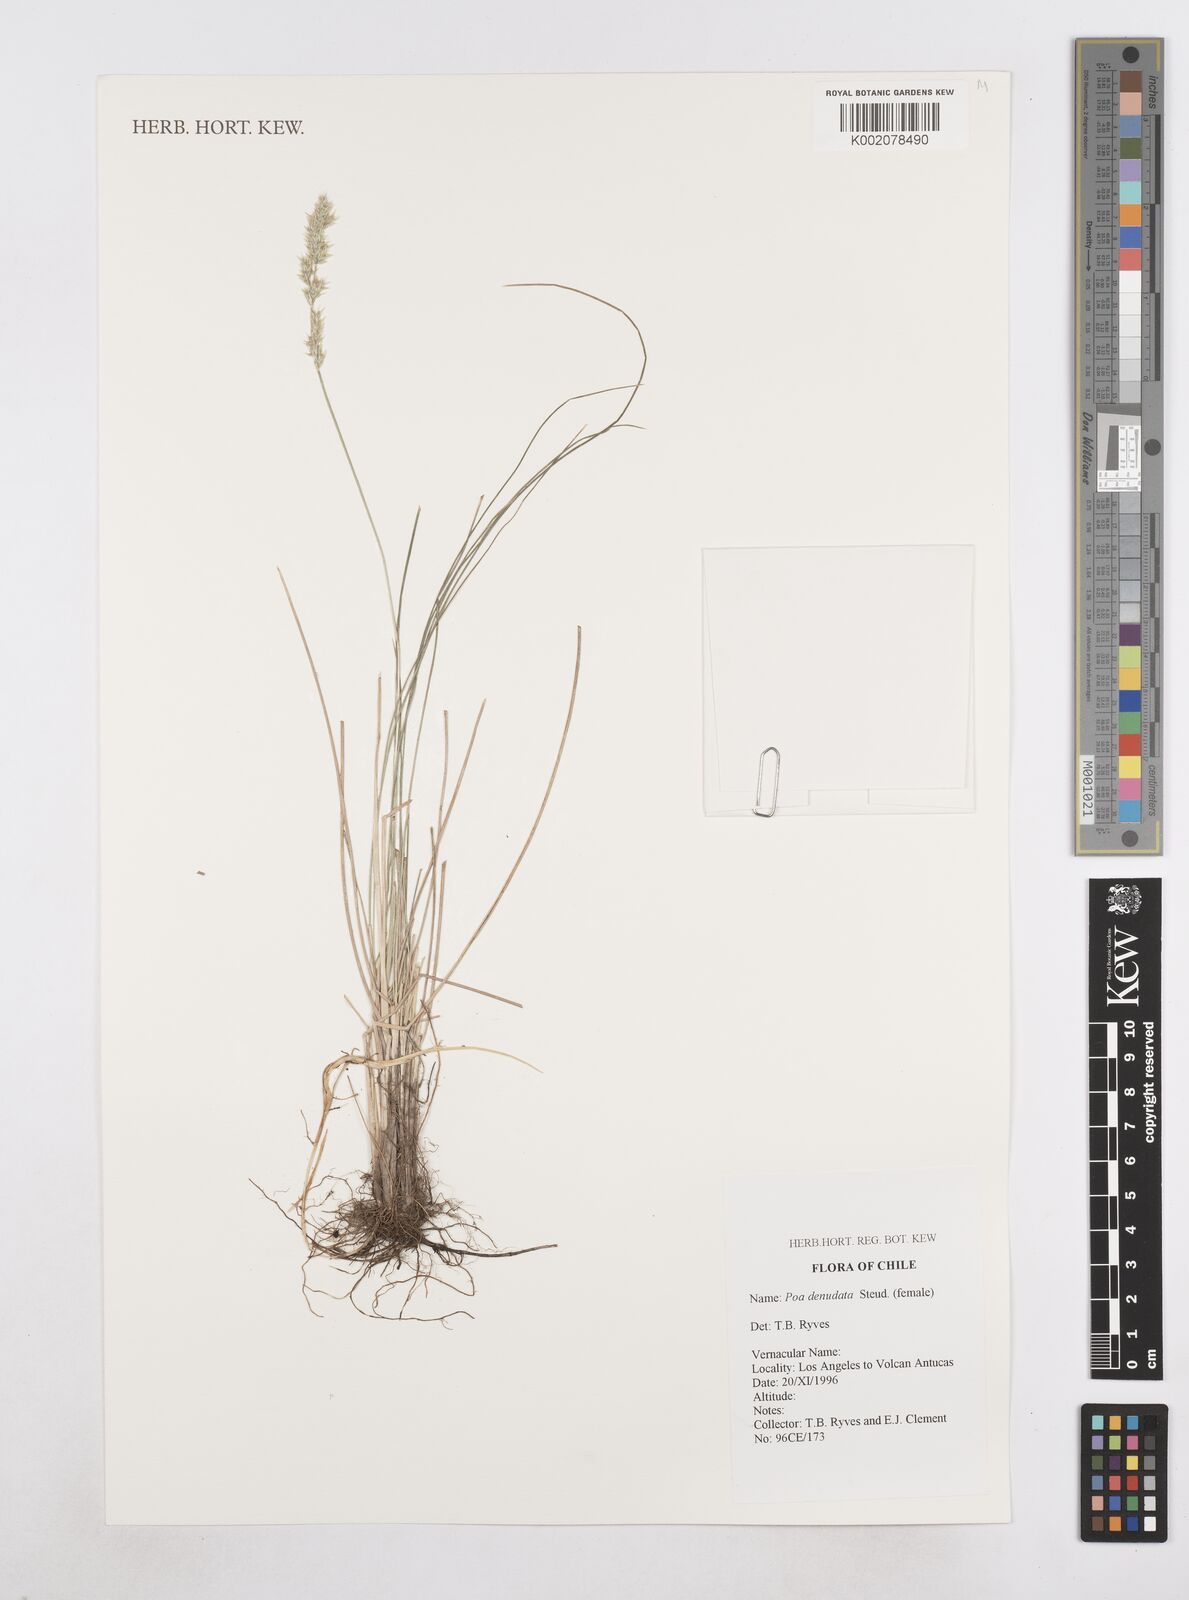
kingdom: Plantae
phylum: Tracheophyta
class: Liliopsida
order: Poales
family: Poaceae
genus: Poa
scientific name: Poa denudata
